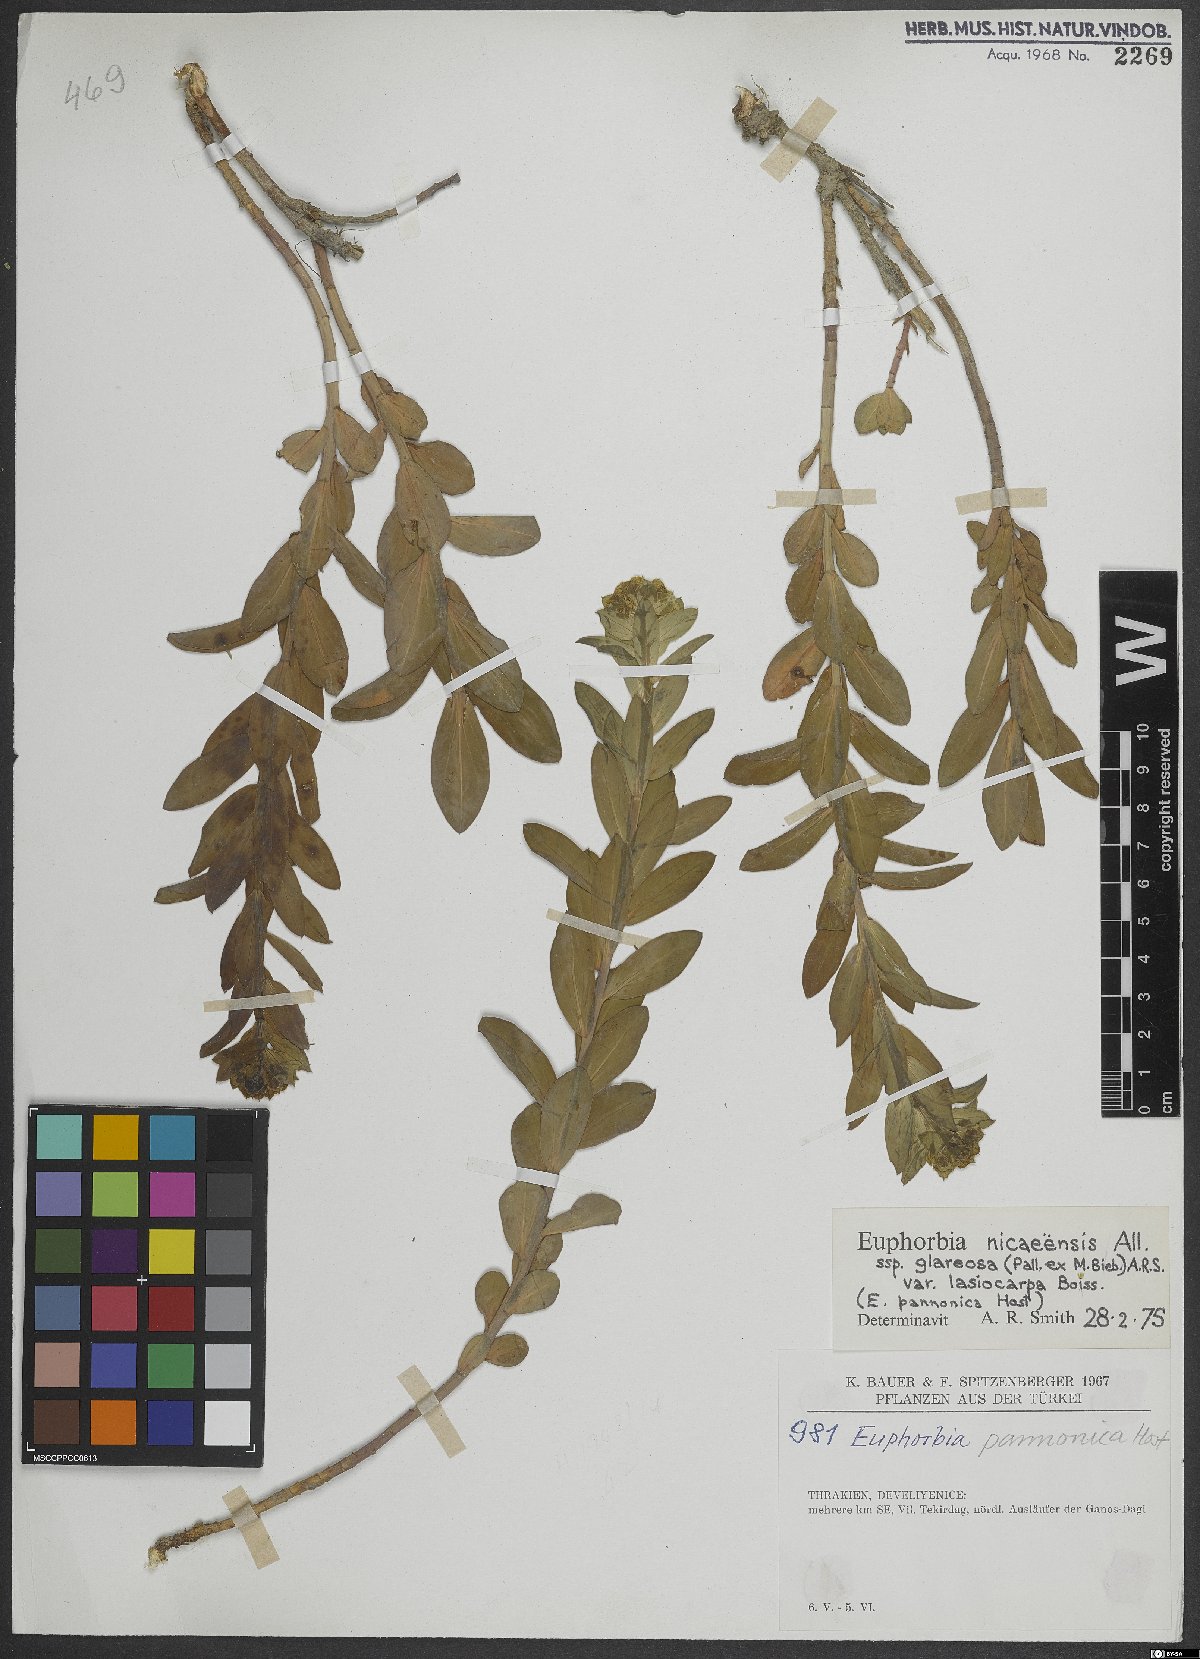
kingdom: Plantae
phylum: Tracheophyta
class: Magnoliopsida
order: Malpighiales
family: Euphorbiaceae
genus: Euphorbia
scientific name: Euphorbia nicaeensis
